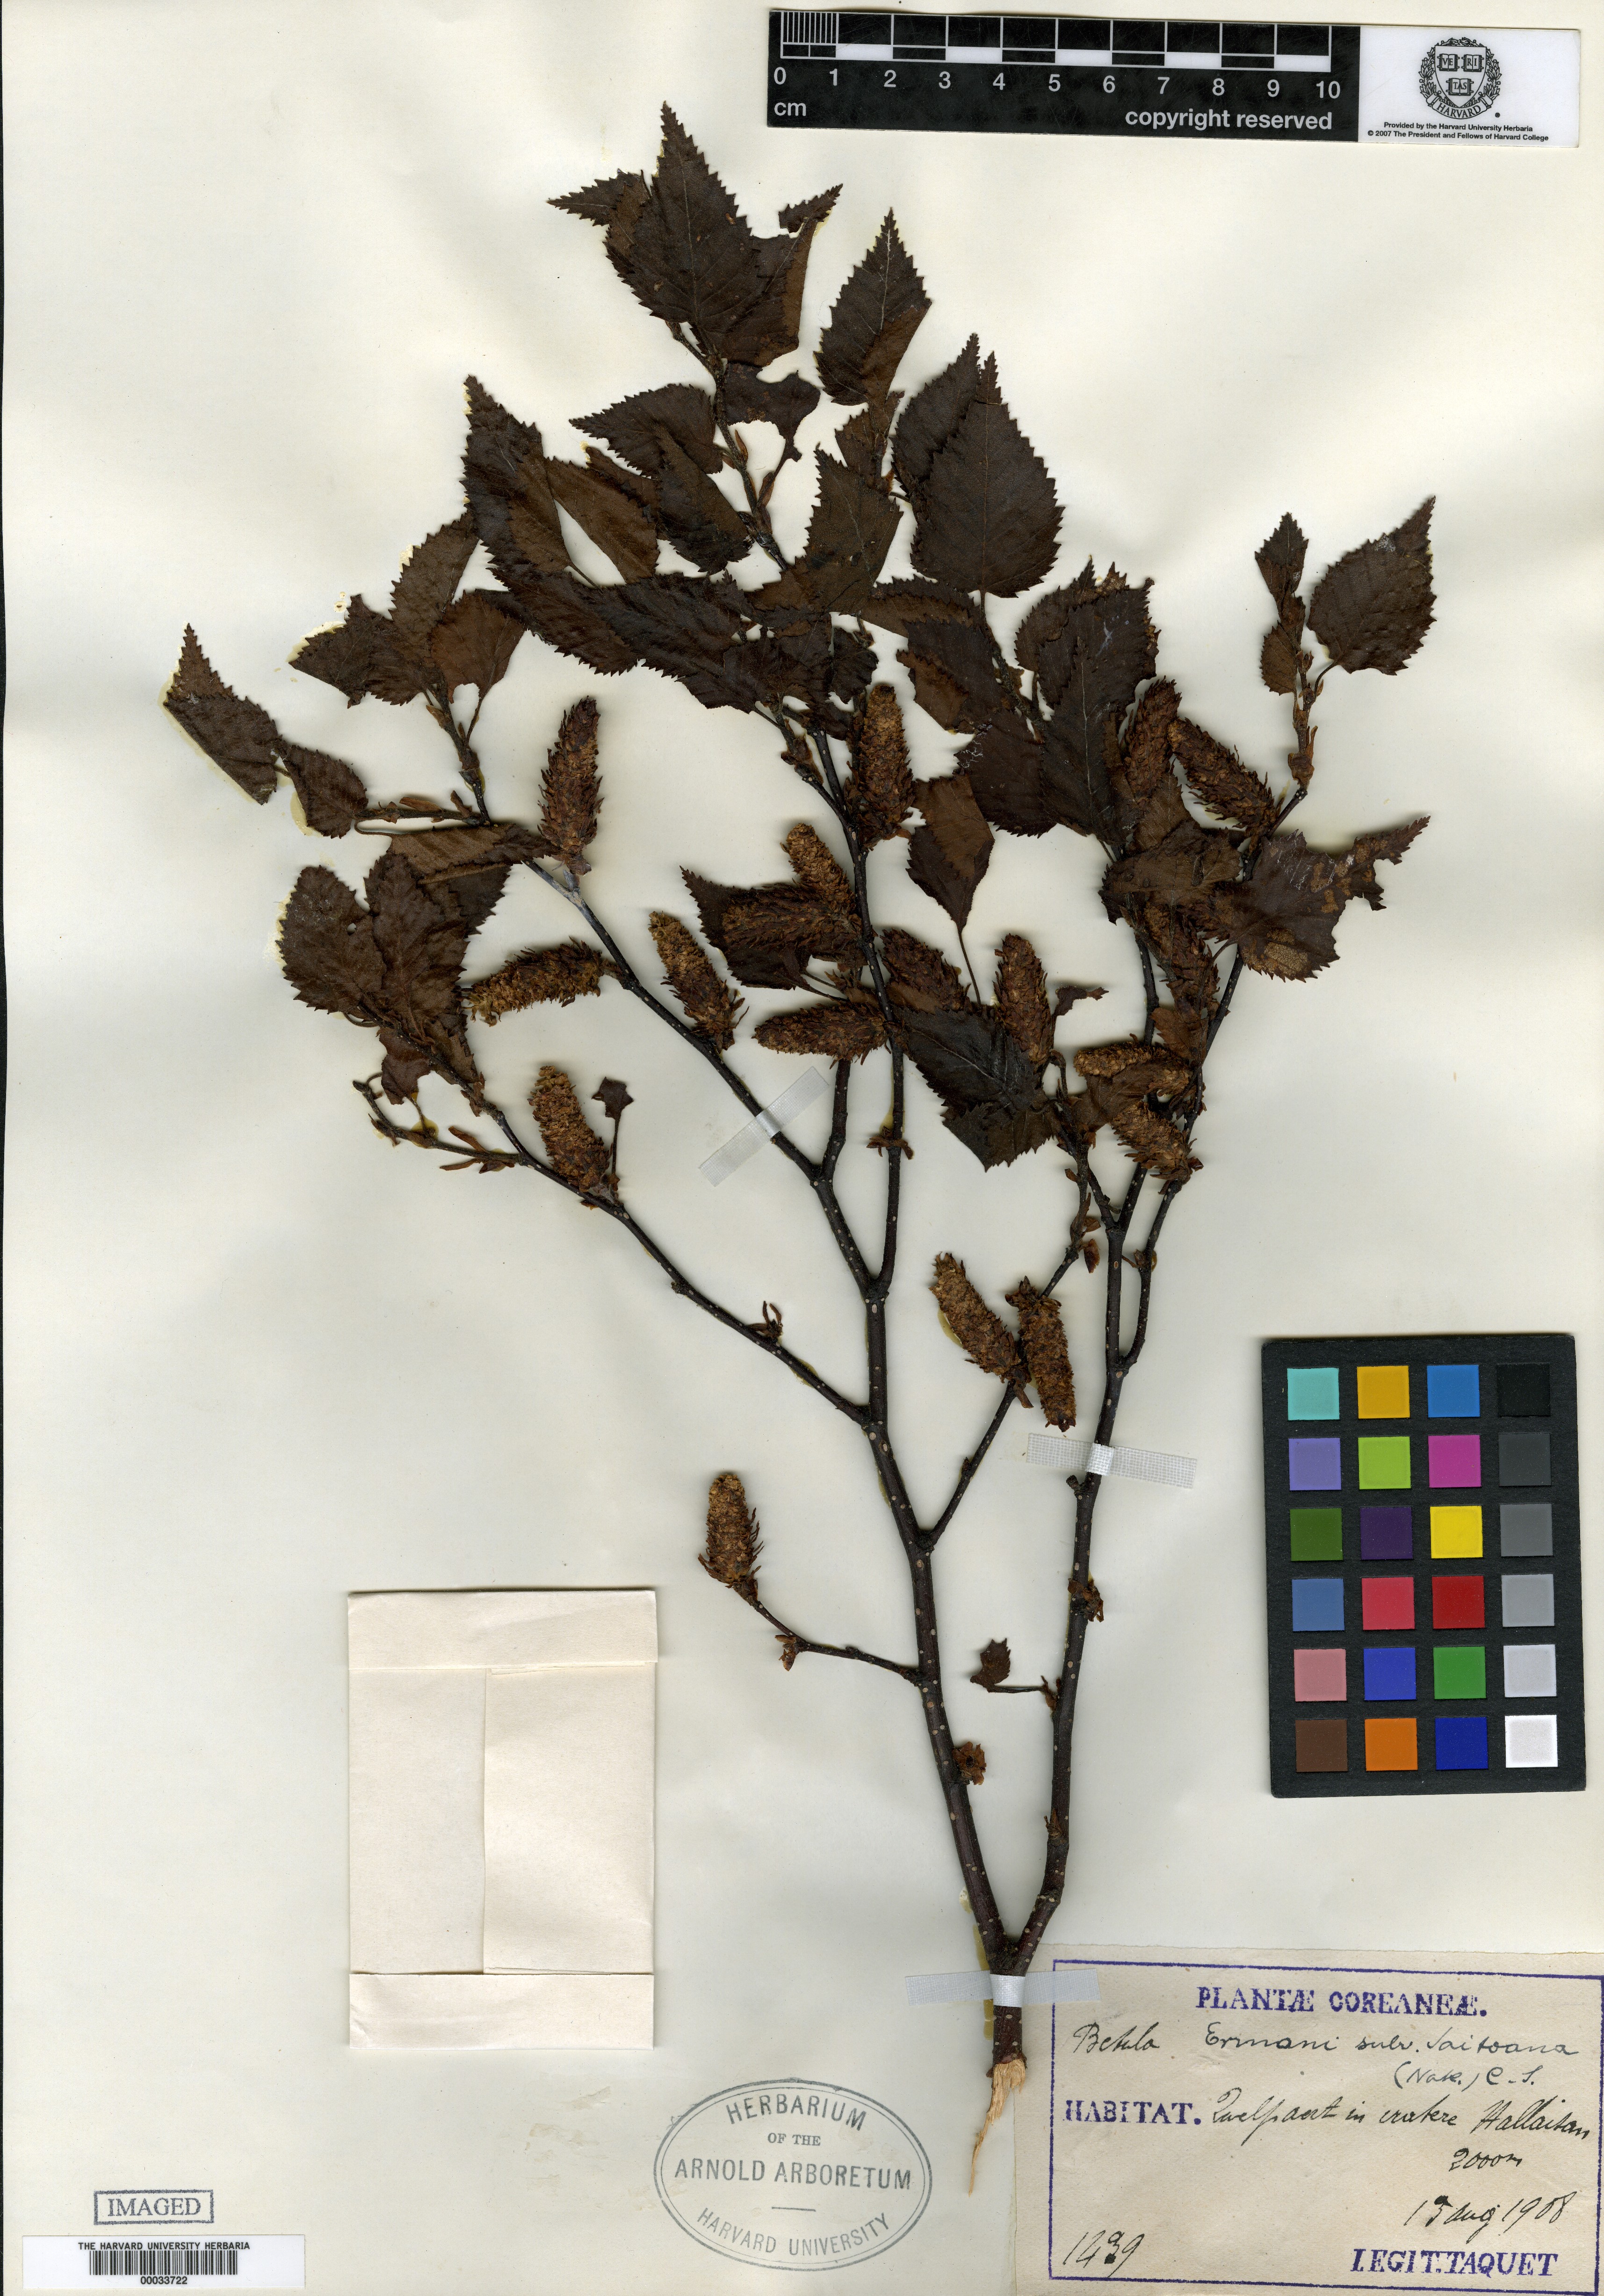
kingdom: Plantae
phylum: Tracheophyta
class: Magnoliopsida
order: Fagales
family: Betulaceae
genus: Betula
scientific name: Betula ermanii
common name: Erman's birch
